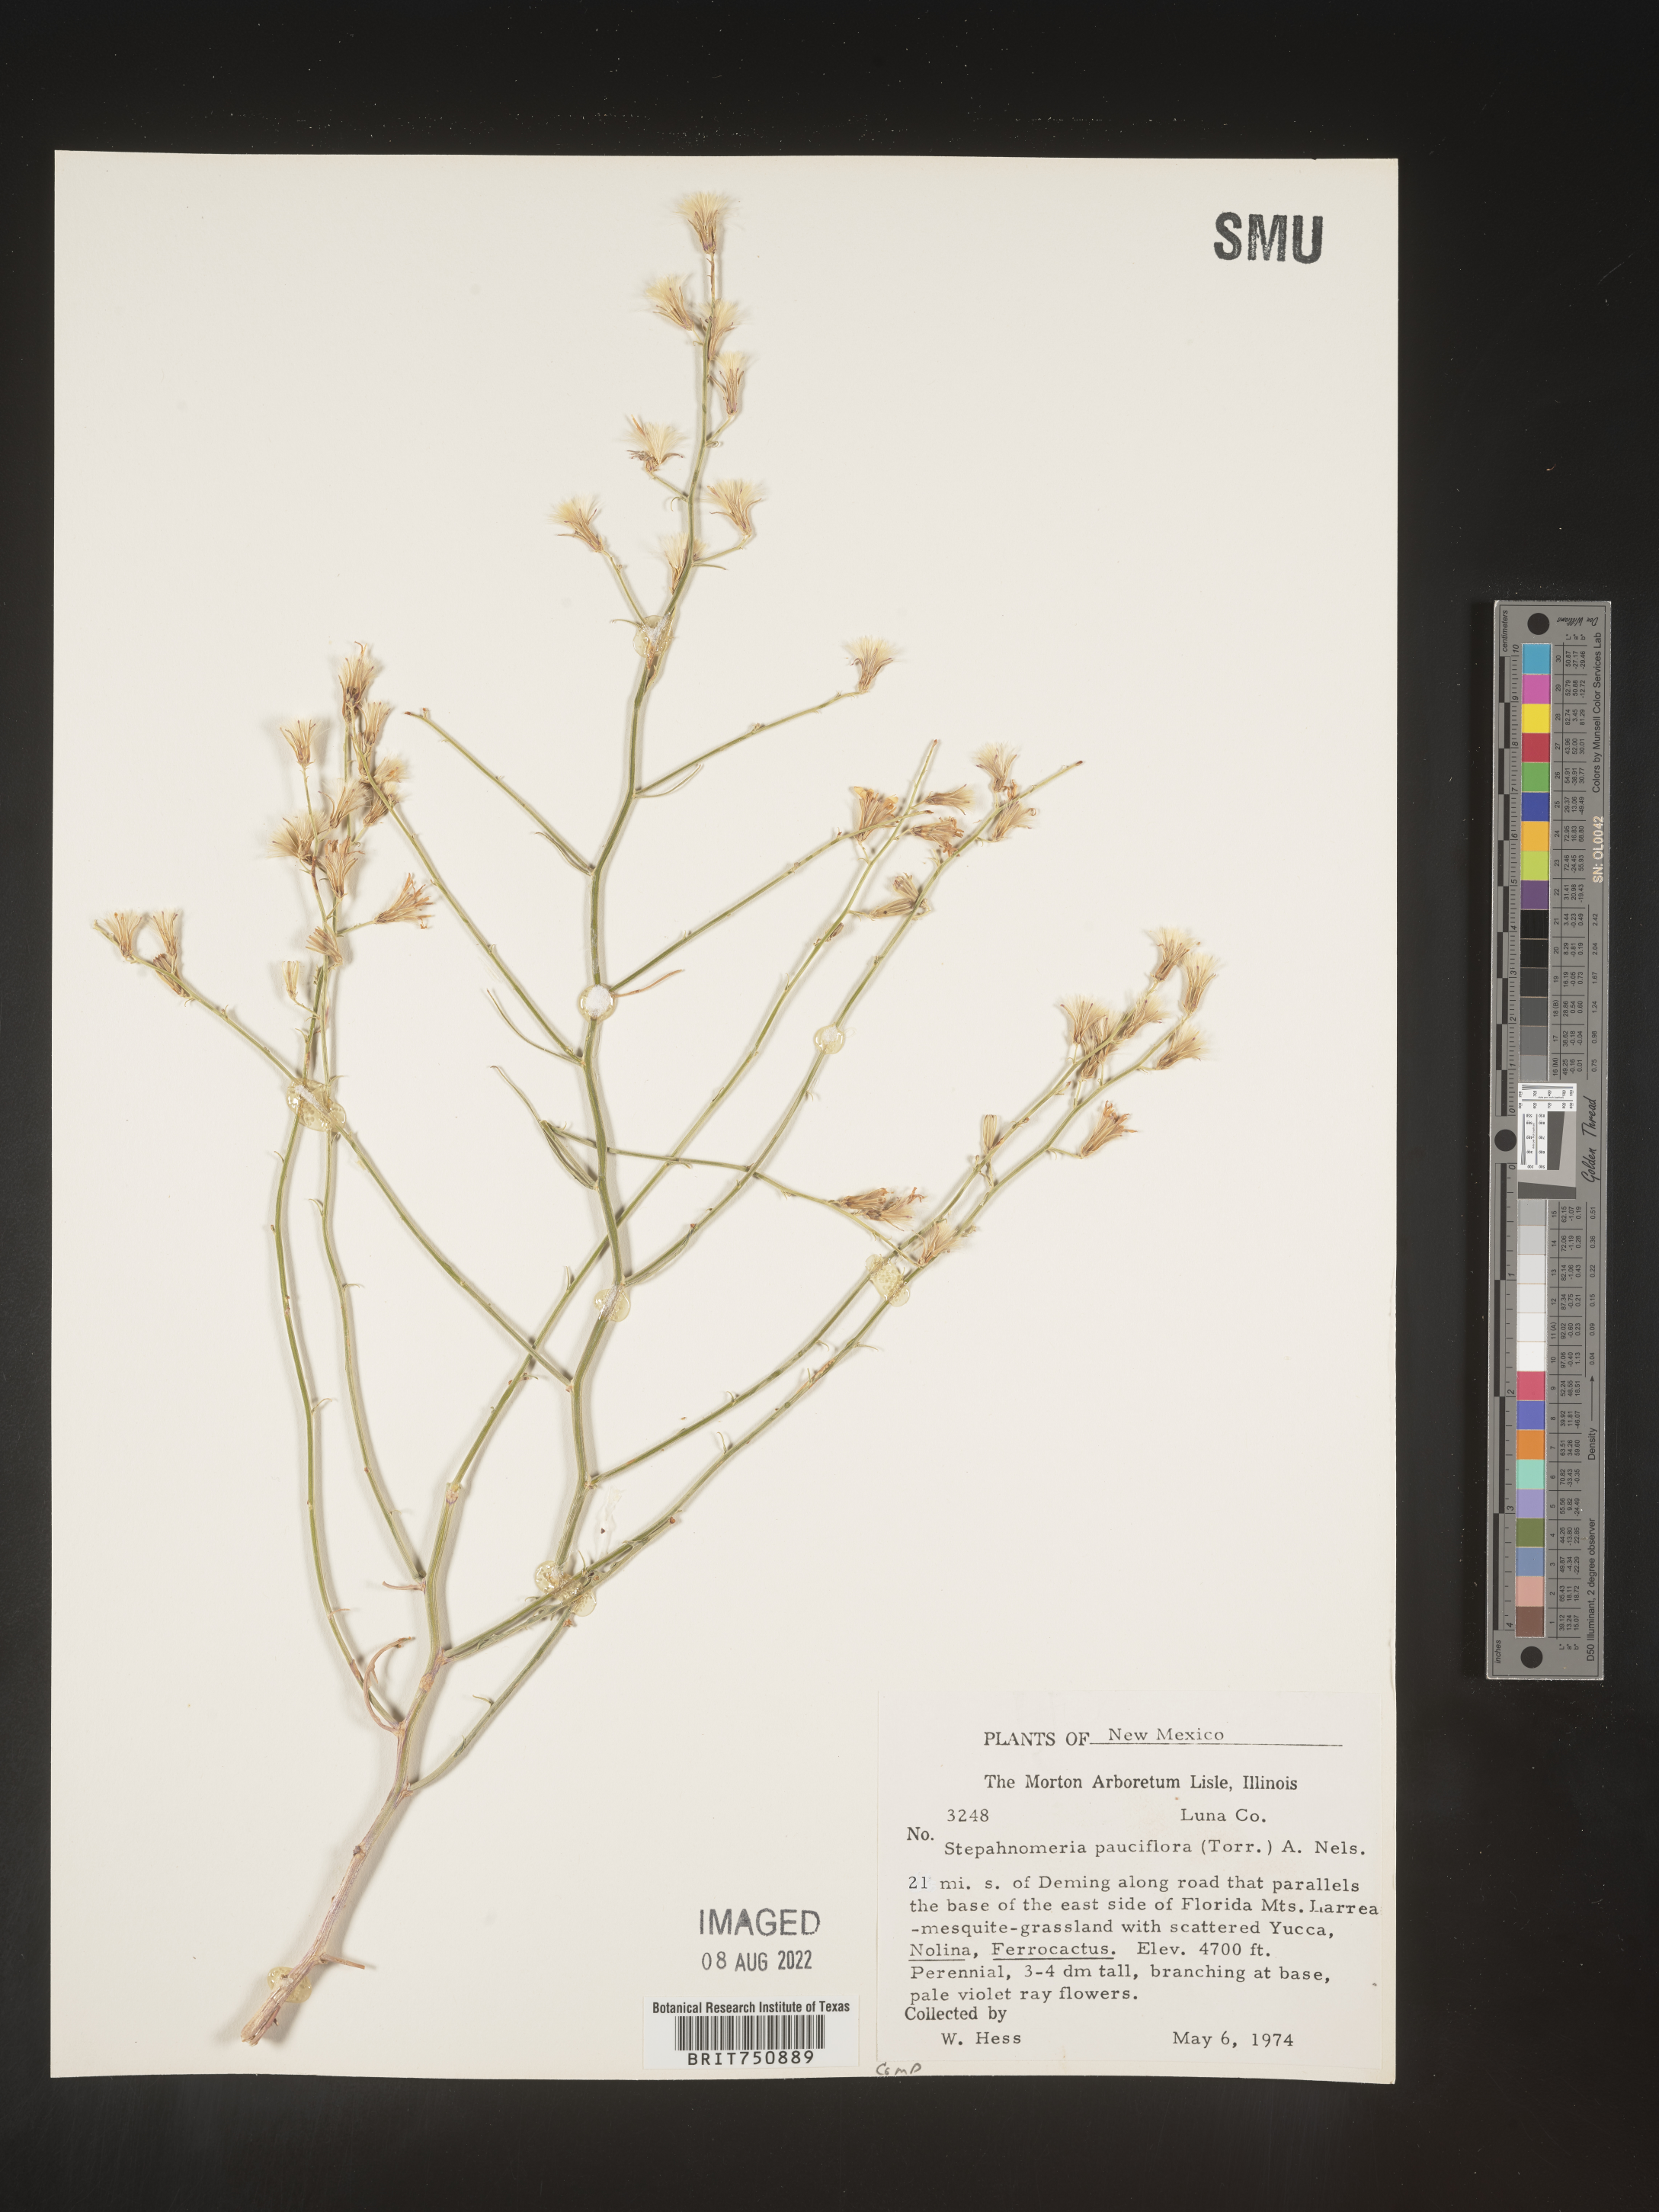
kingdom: Plantae
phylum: Tracheophyta
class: Magnoliopsida
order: Asterales
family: Asteraceae
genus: Stephanomeria
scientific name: Stephanomeria pauciflora
